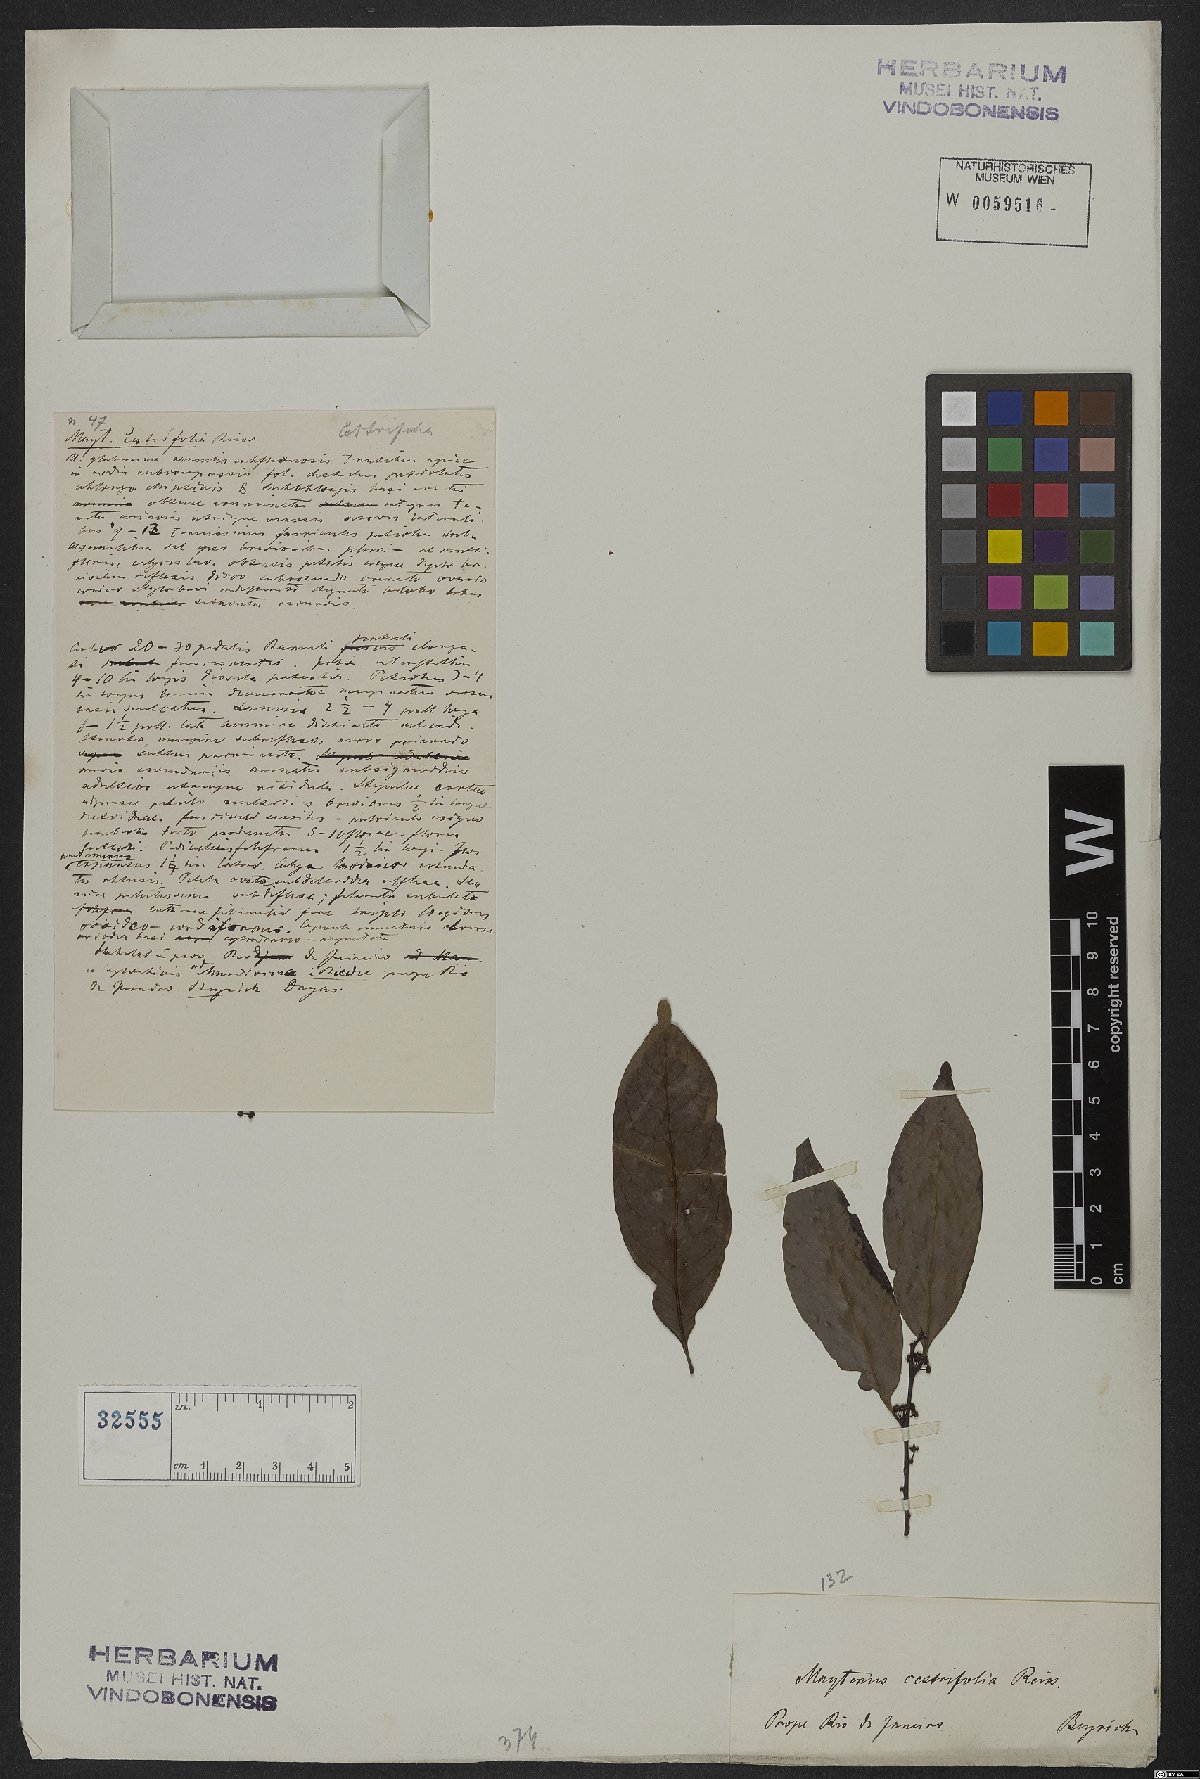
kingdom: Plantae
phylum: Tracheophyta
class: Magnoliopsida
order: Celastrales
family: Celastraceae
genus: Monteverdia
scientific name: Monteverdia cestrifolia
